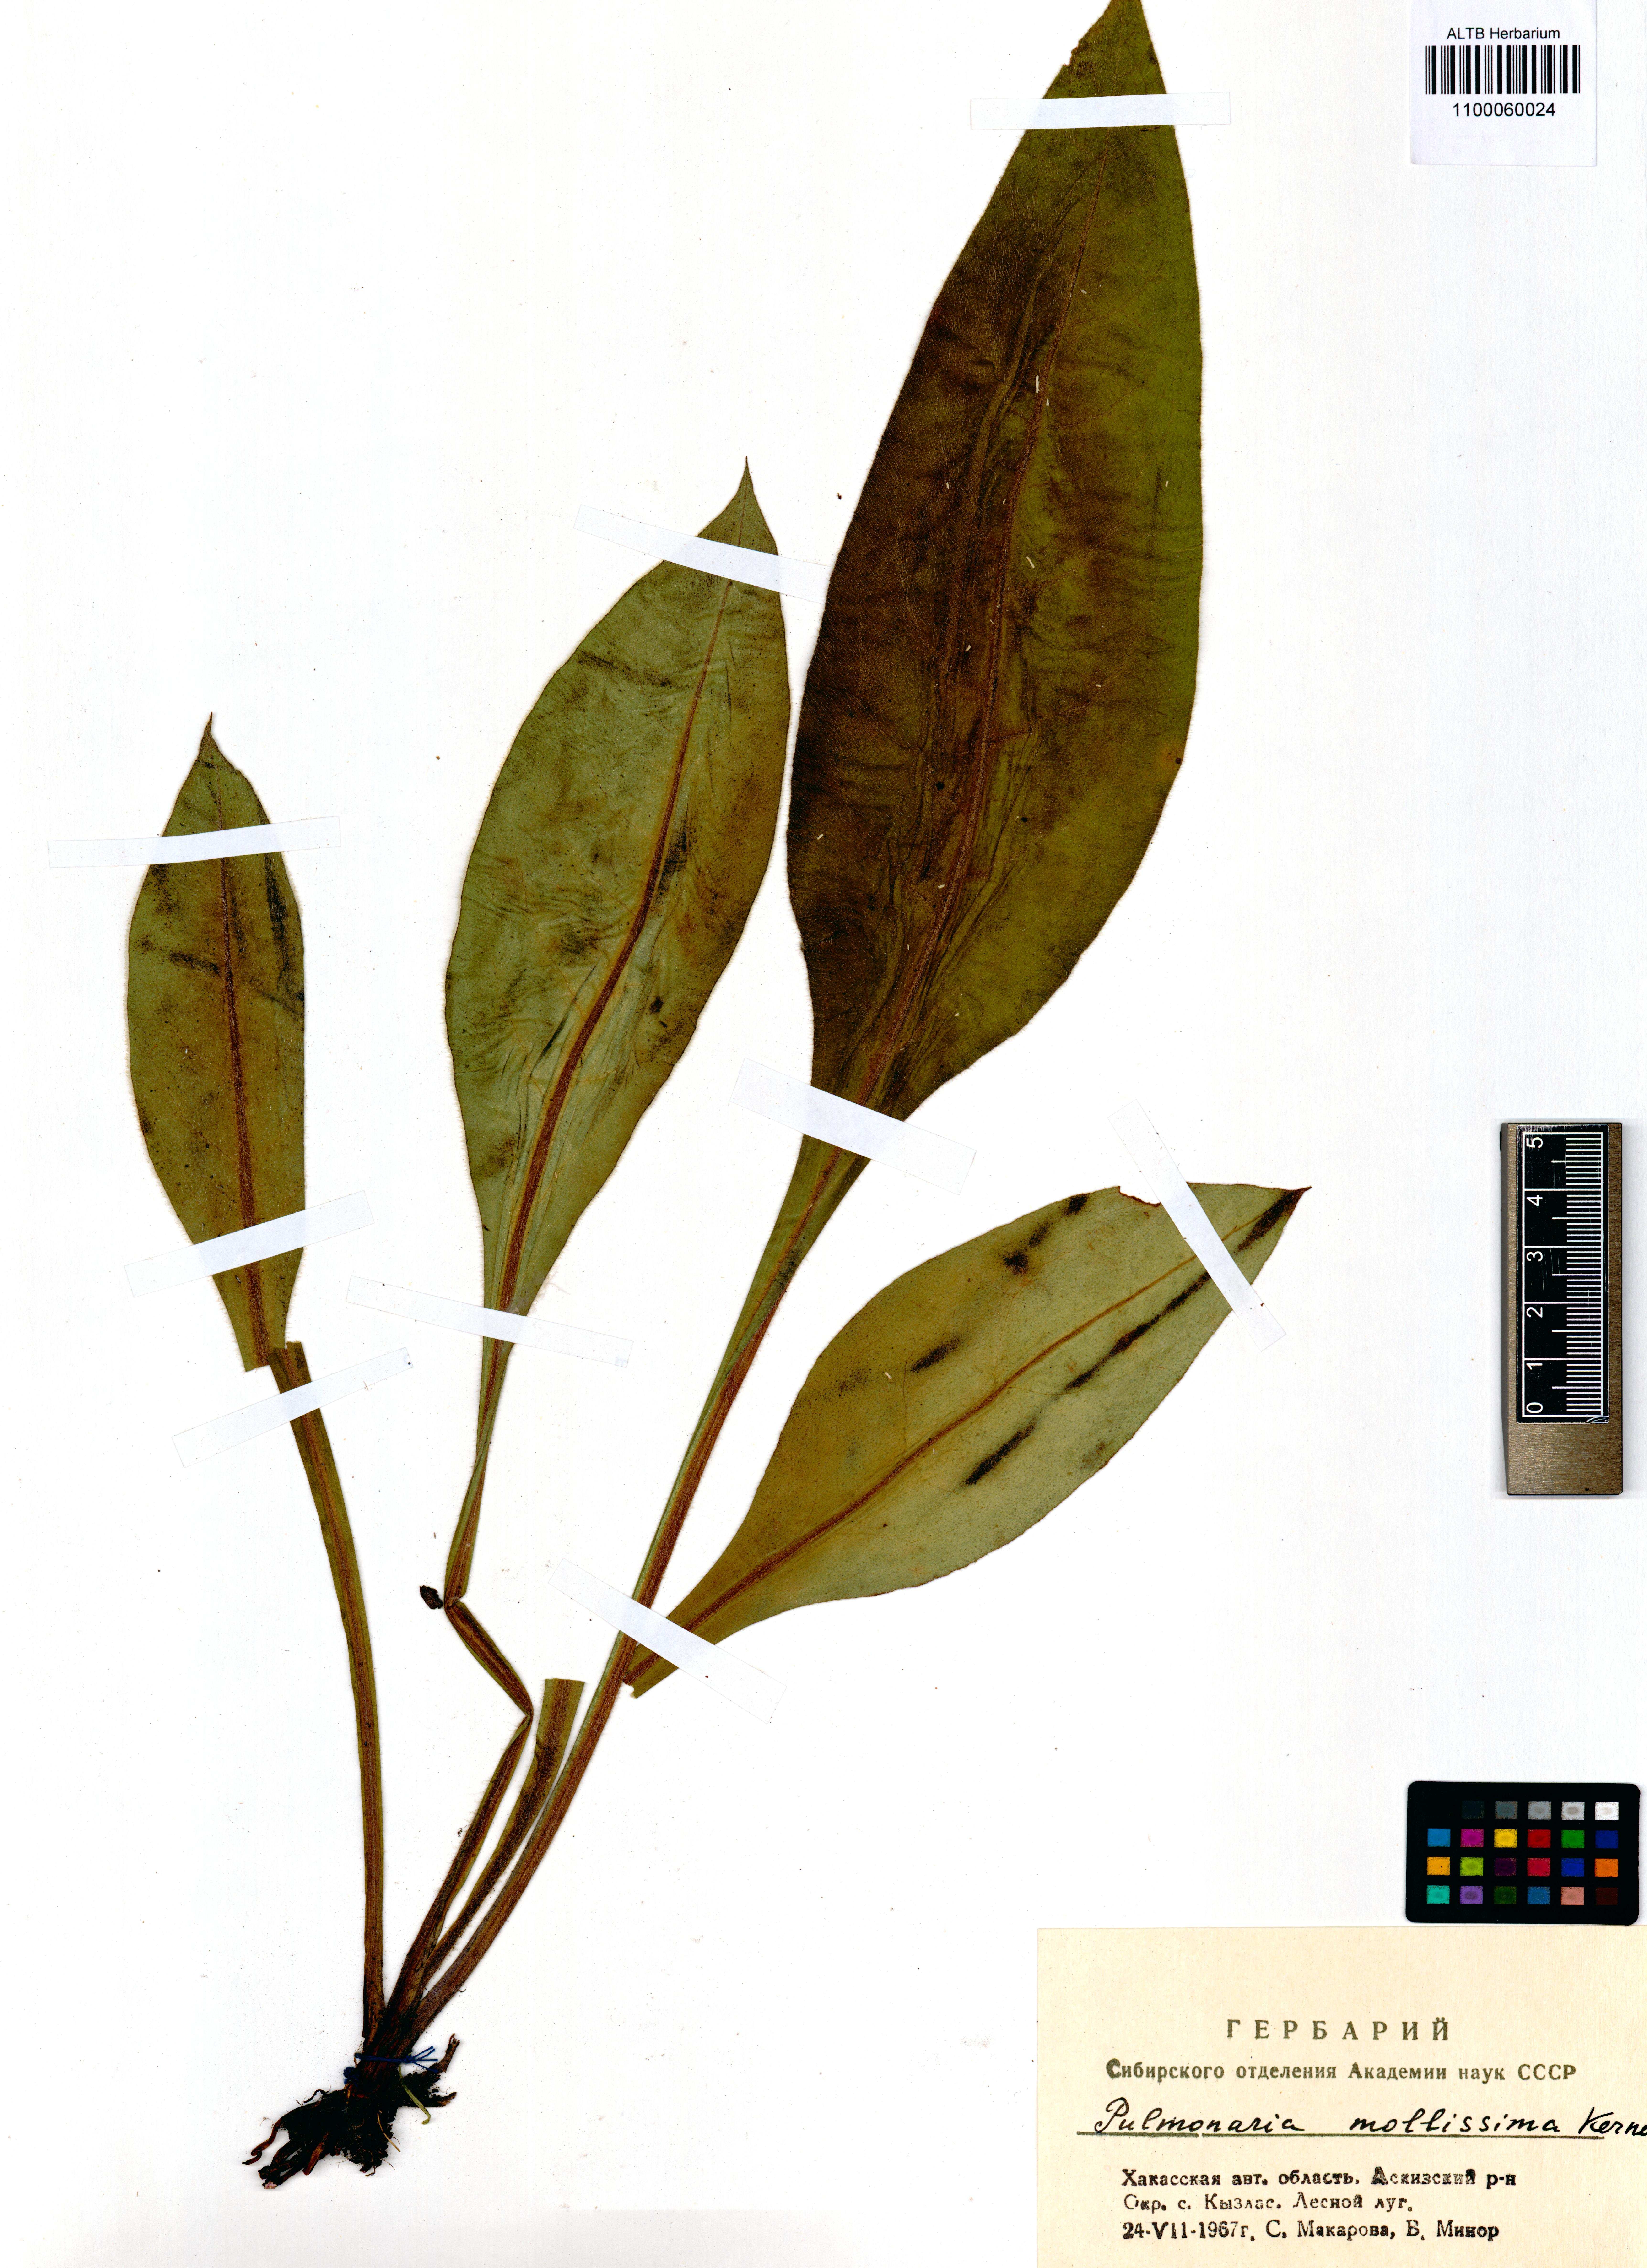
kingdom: Plantae
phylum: Tracheophyta
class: Magnoliopsida
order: Boraginales
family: Boraginaceae
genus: Pulmonaria
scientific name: Pulmonaria mollis
